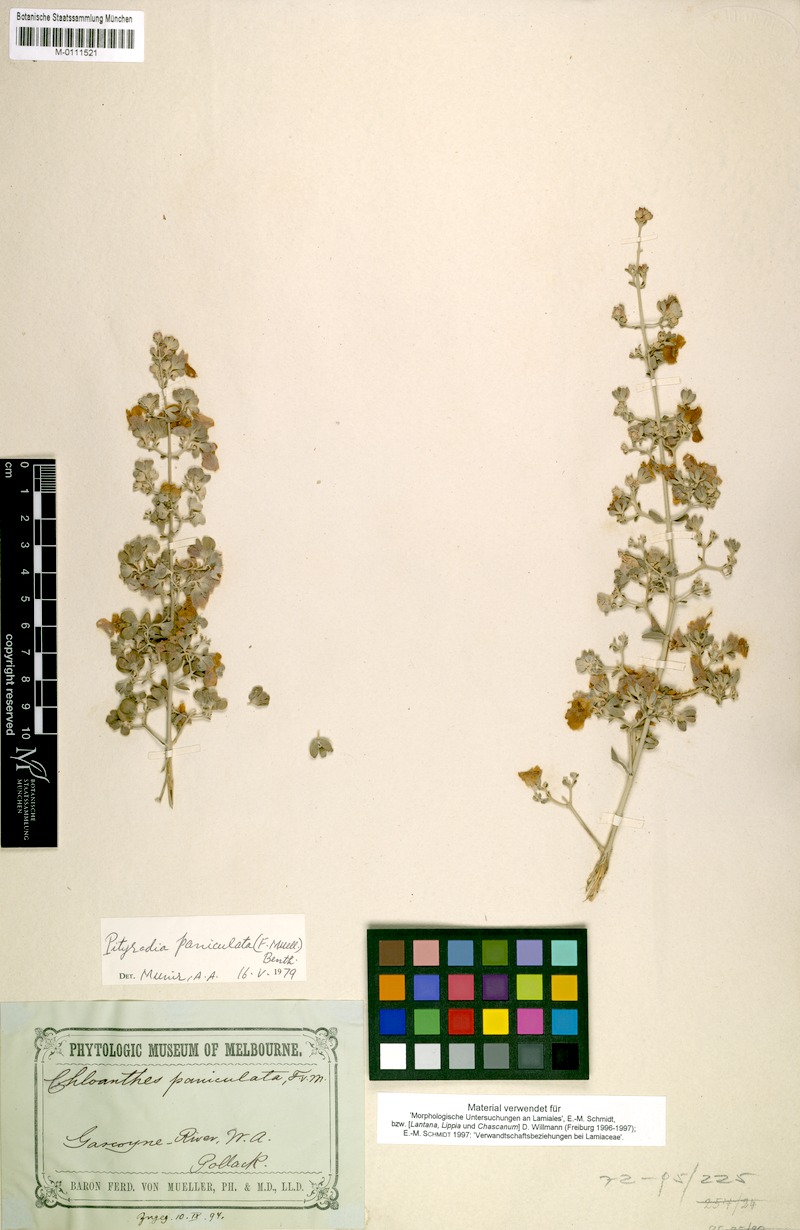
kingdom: Plantae
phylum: Tracheophyta
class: Magnoliopsida
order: Lamiales
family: Lamiaceae
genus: Quoya
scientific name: Quoya paniculata
